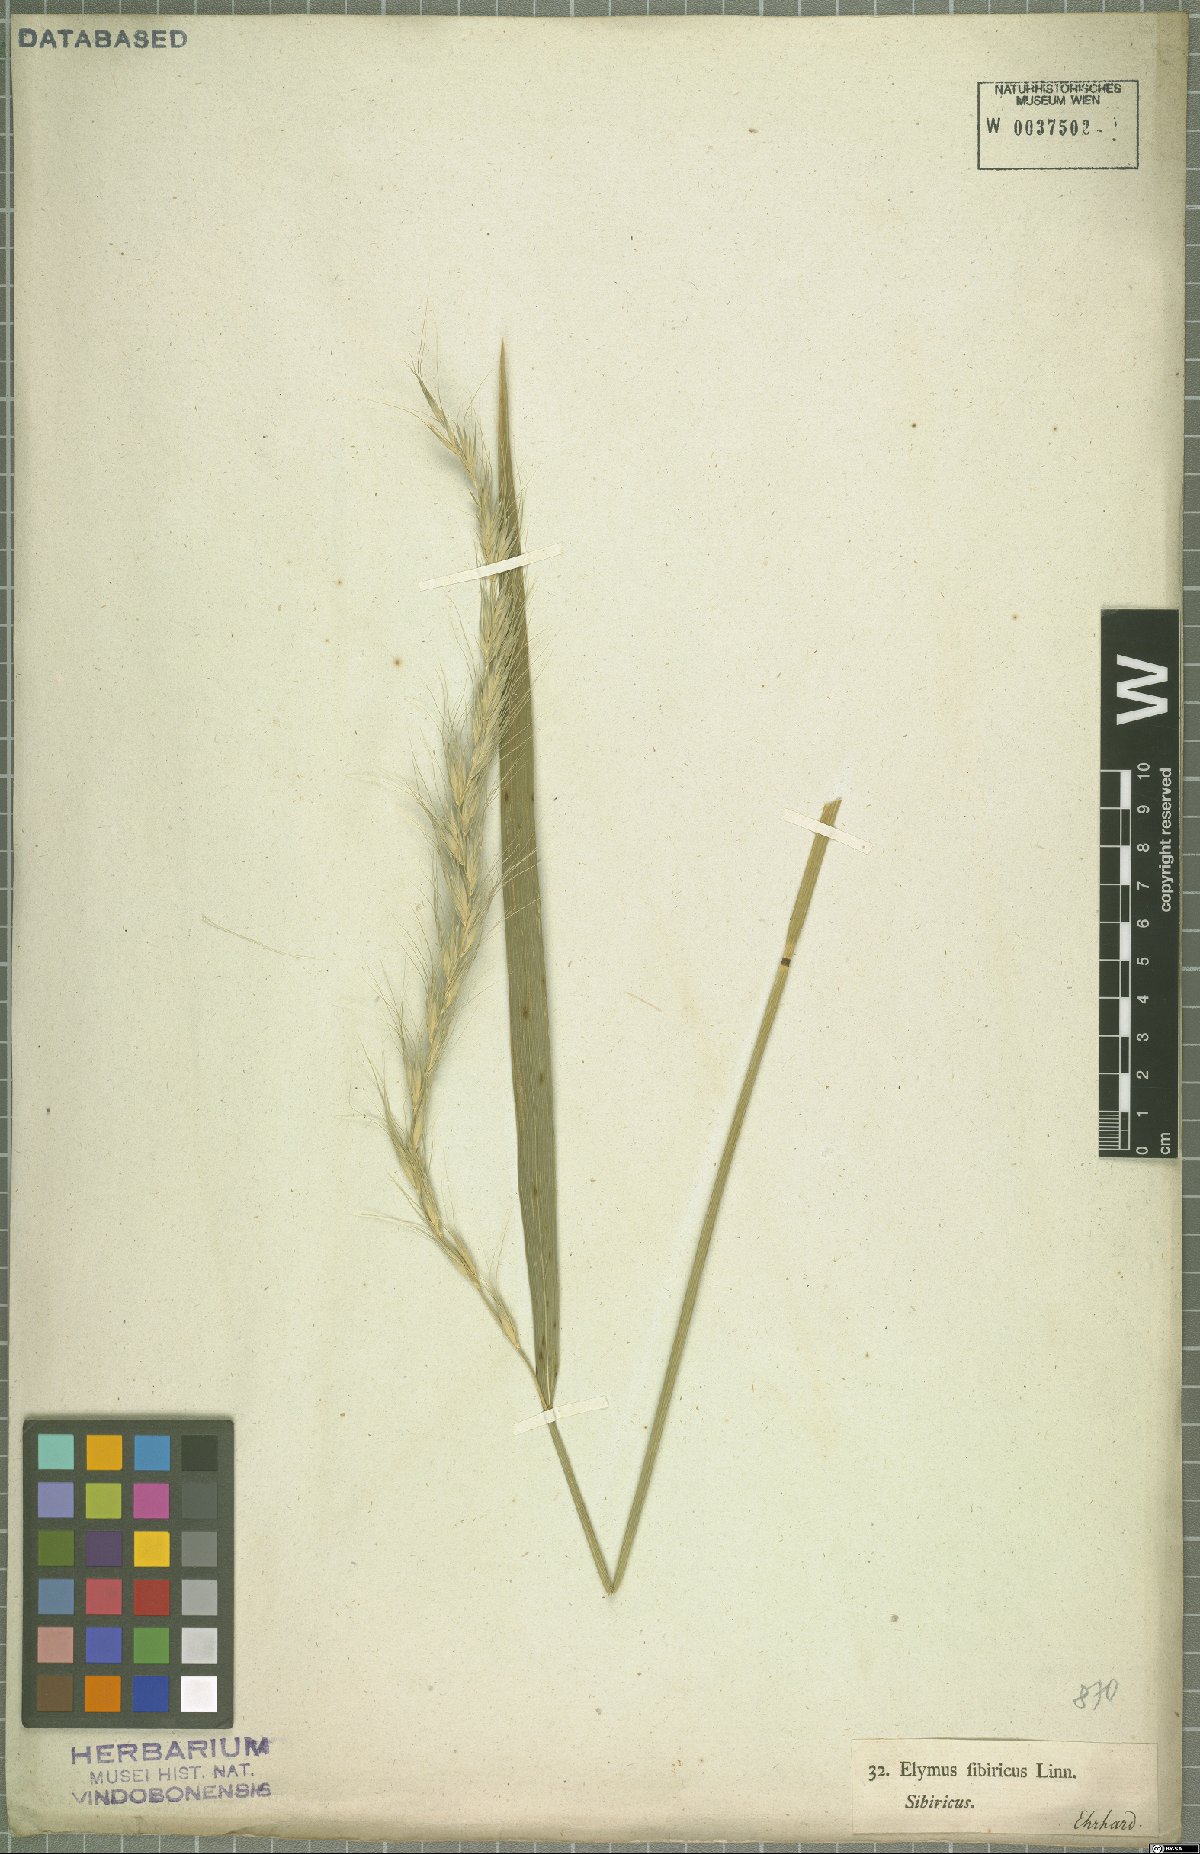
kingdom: Plantae
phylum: Tracheophyta
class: Liliopsida
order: Poales
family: Poaceae
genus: Elymus
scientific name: Elymus sibiricus
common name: Siberian wildrye
